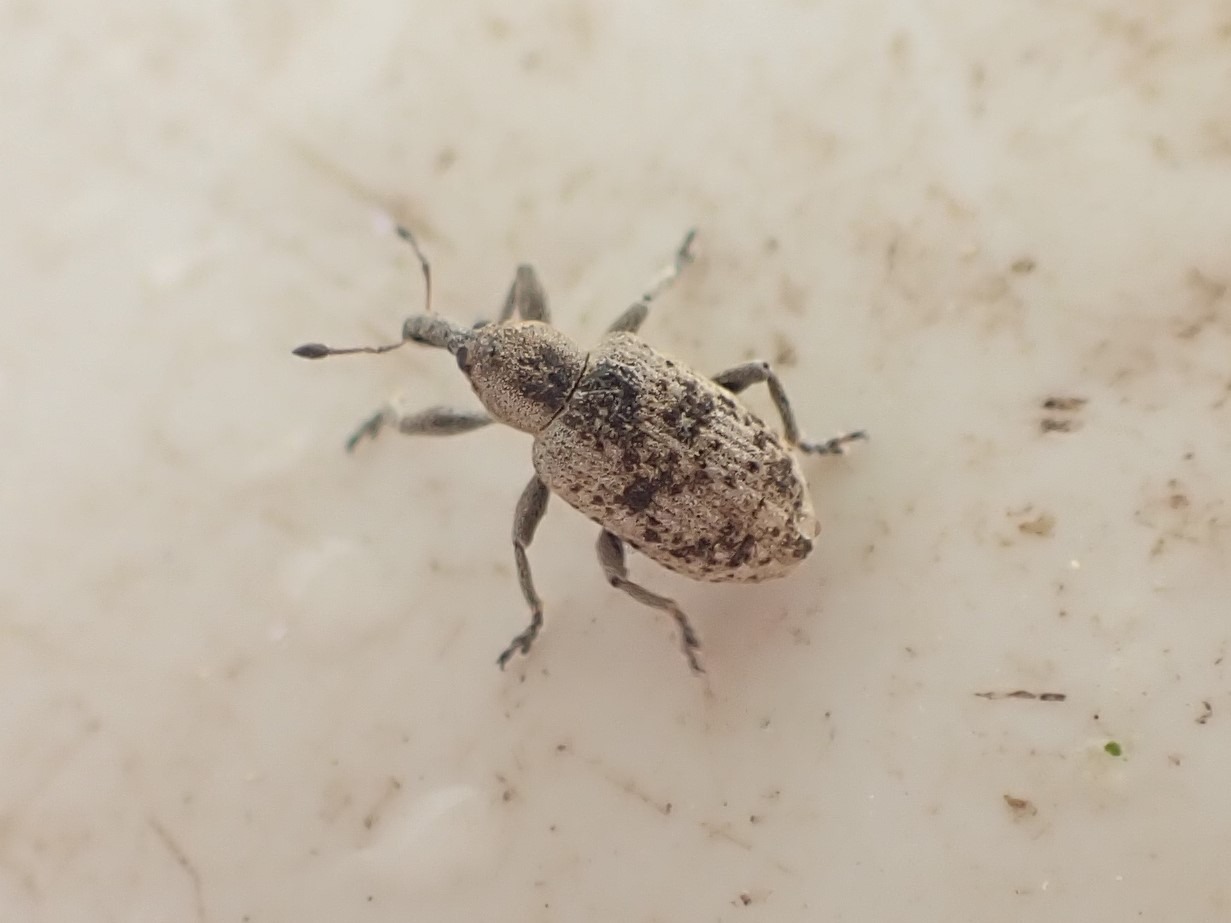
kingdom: Animalia
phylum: Arthropoda
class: Insecta
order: Coleoptera
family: Curculionidae
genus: Hypera
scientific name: Hypera rumicis
